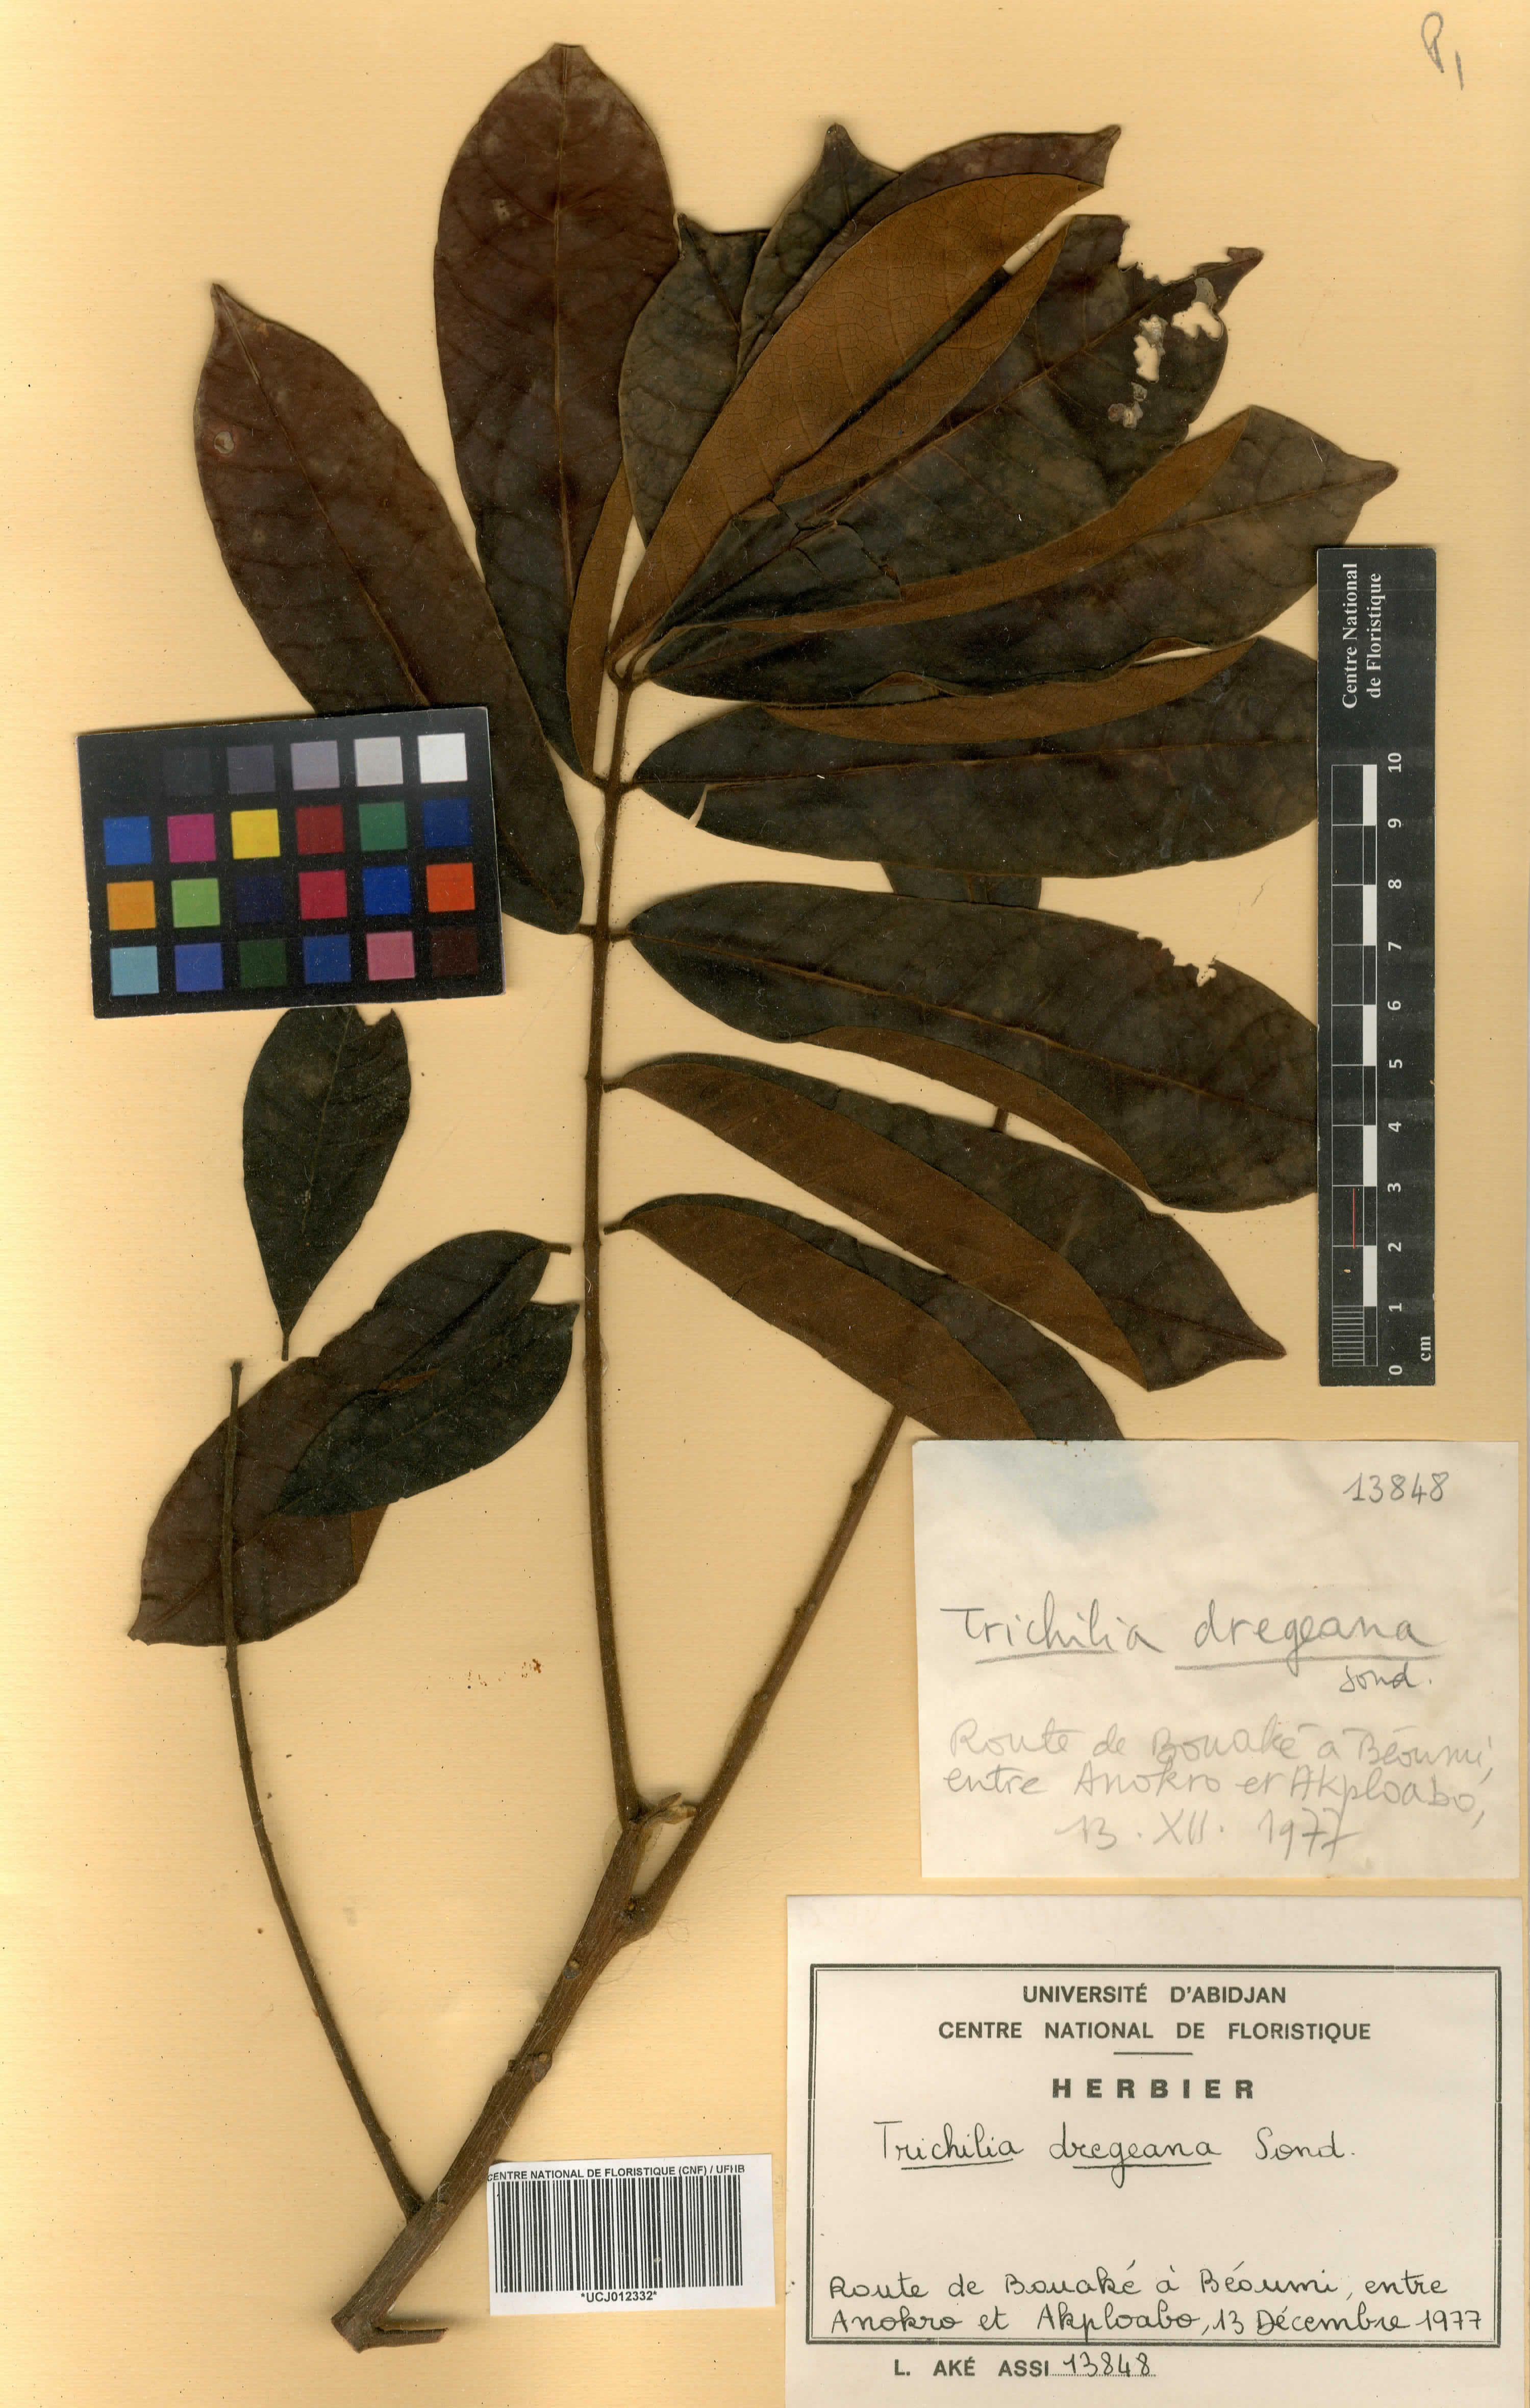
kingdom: Plantae
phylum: Tracheophyta
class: Magnoliopsida
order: Sapindales
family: Meliaceae
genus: Trichilia
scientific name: Trichilia emetica
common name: Christmas-bells
